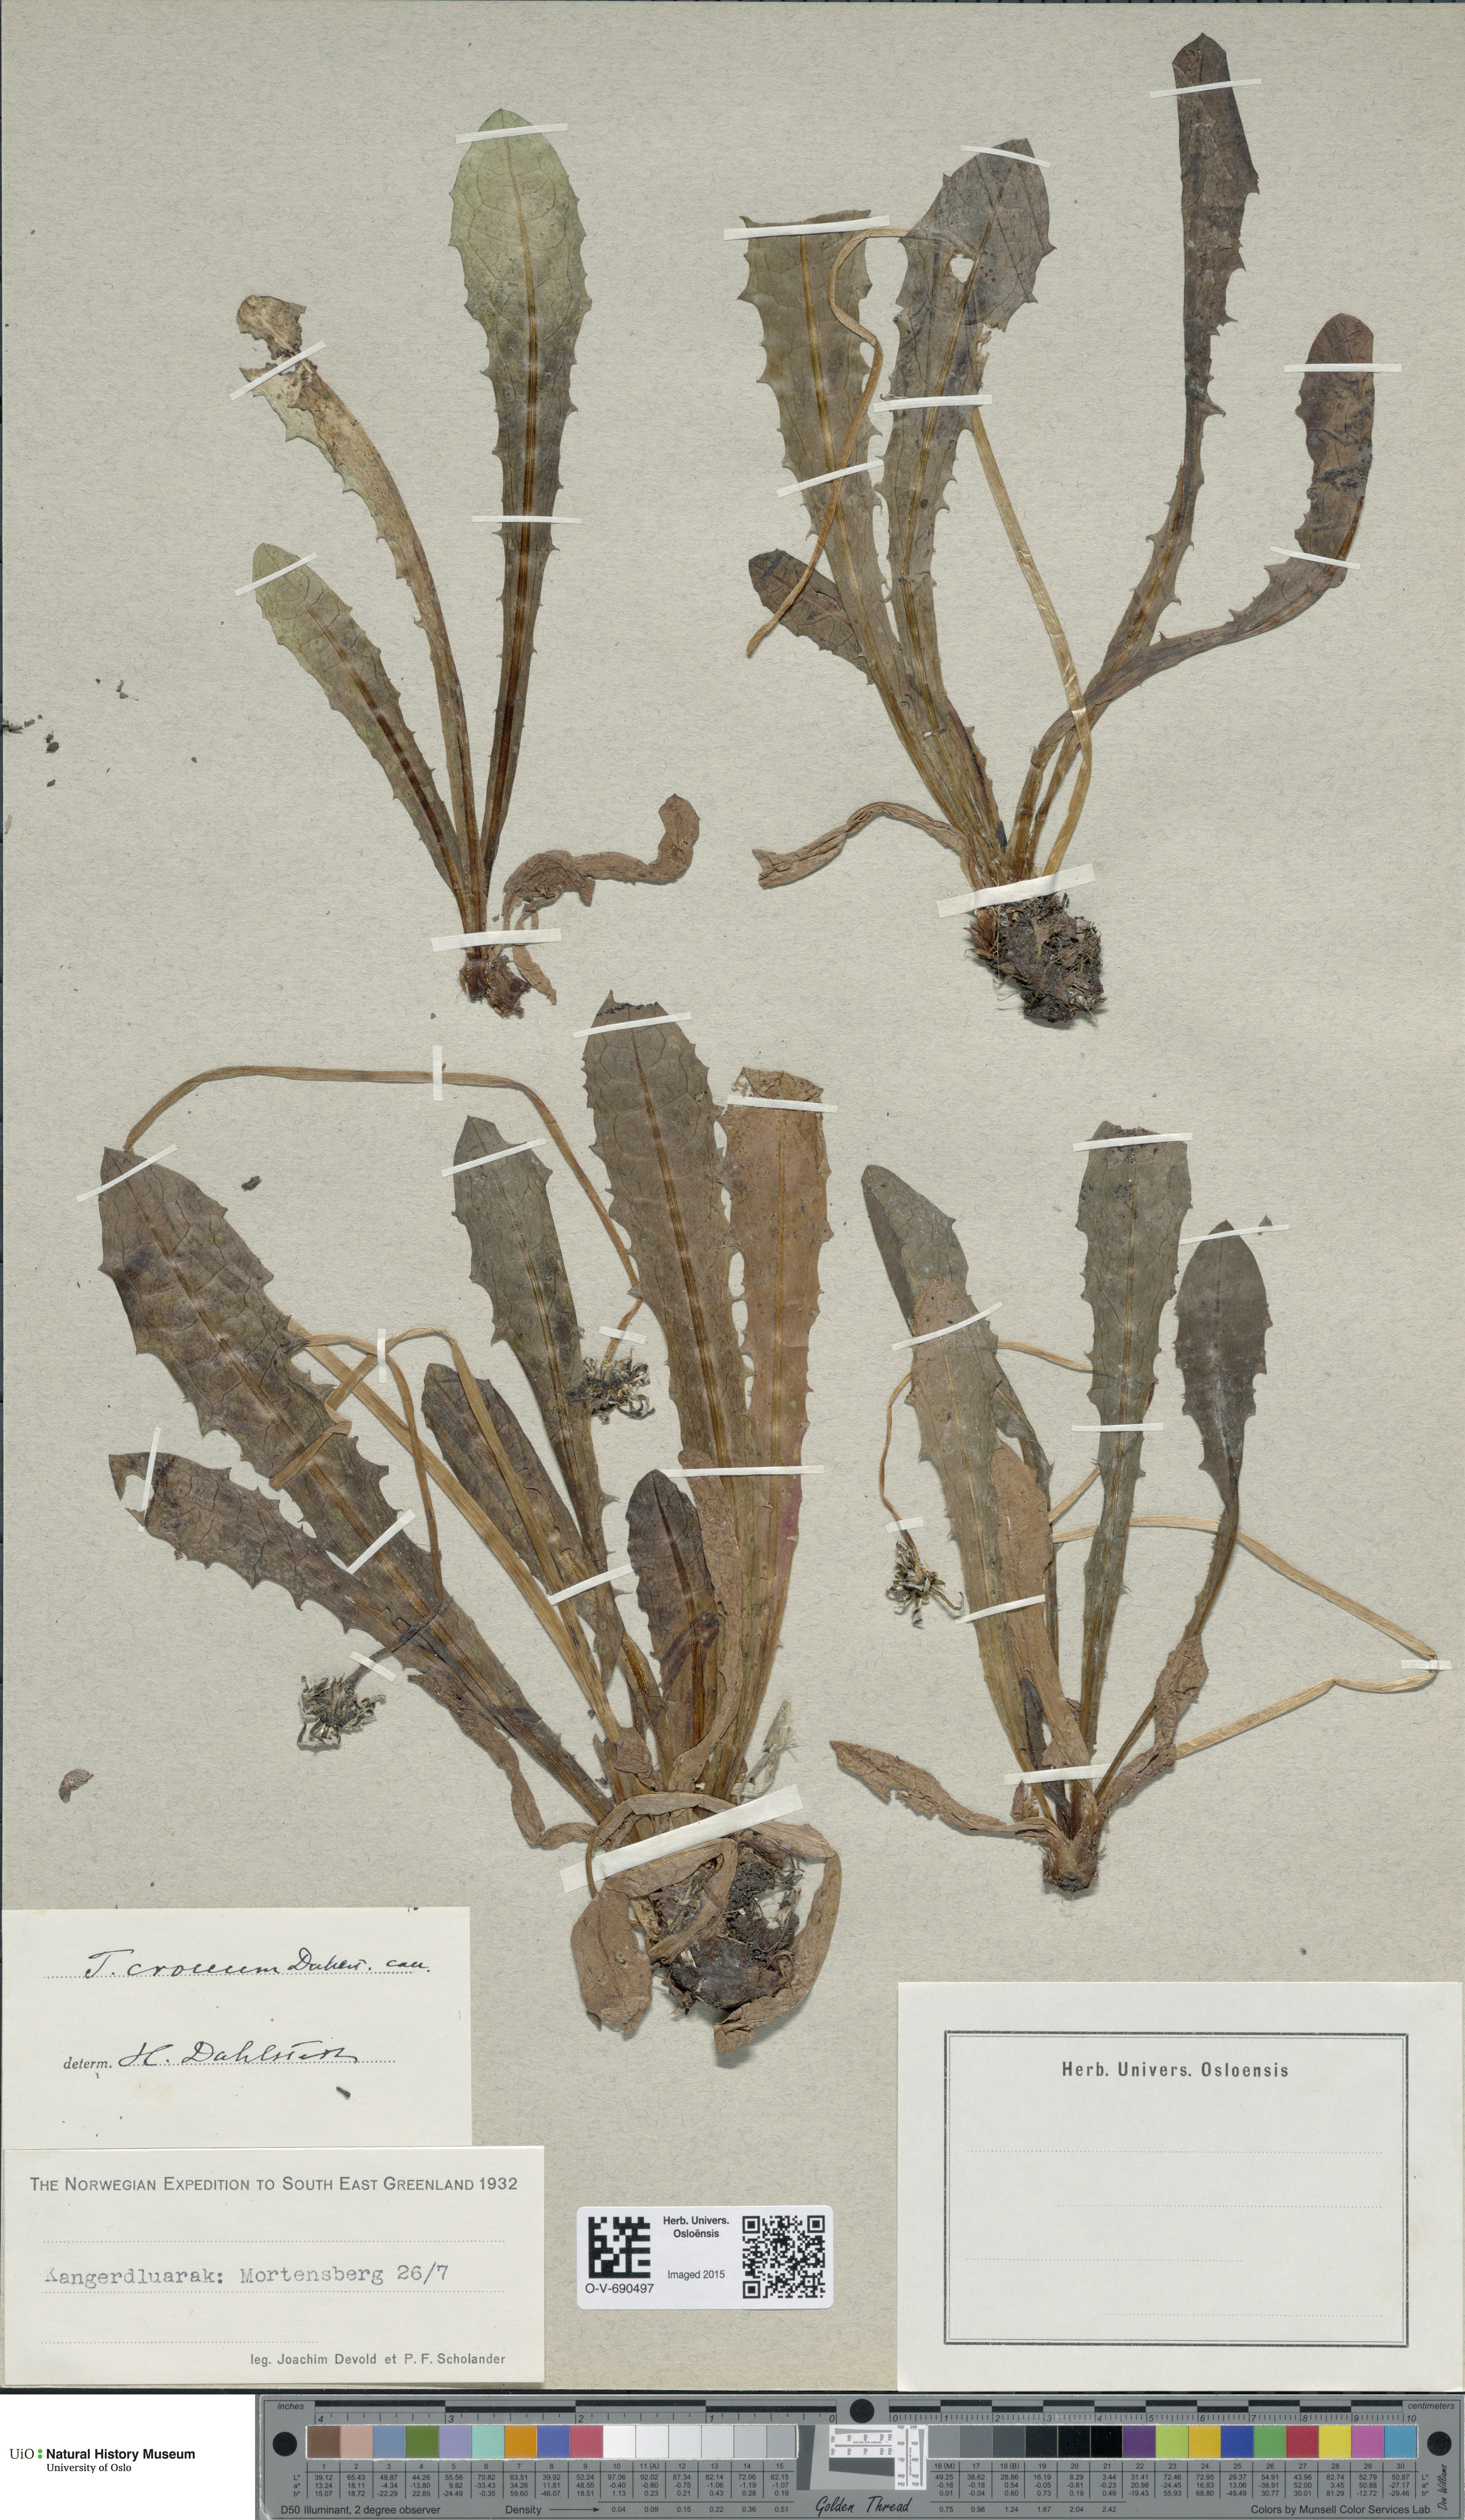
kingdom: Plantae
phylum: Tracheophyta
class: Magnoliopsida
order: Asterales
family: Asteraceae
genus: Taraxacum
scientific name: Taraxacum croceum
